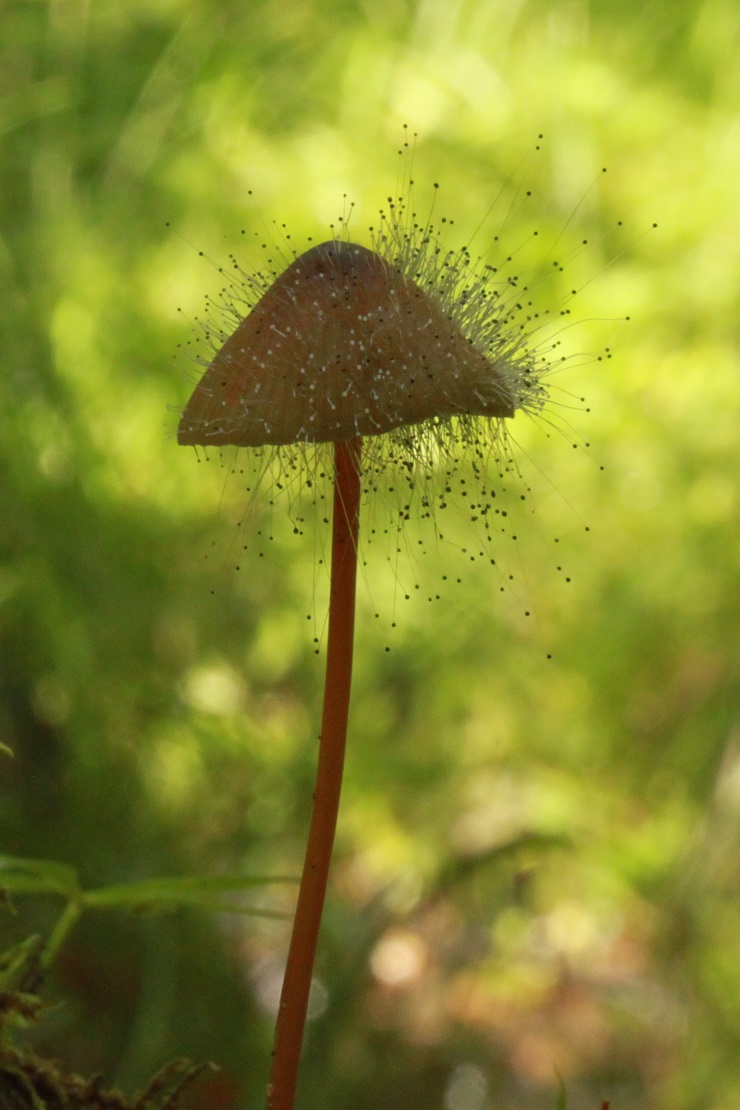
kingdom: Fungi
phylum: Mucoromycota
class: Mucoromycetes
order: Mucorales
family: Phycomycetaceae
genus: Spinellus
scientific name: Spinellus fusiger
